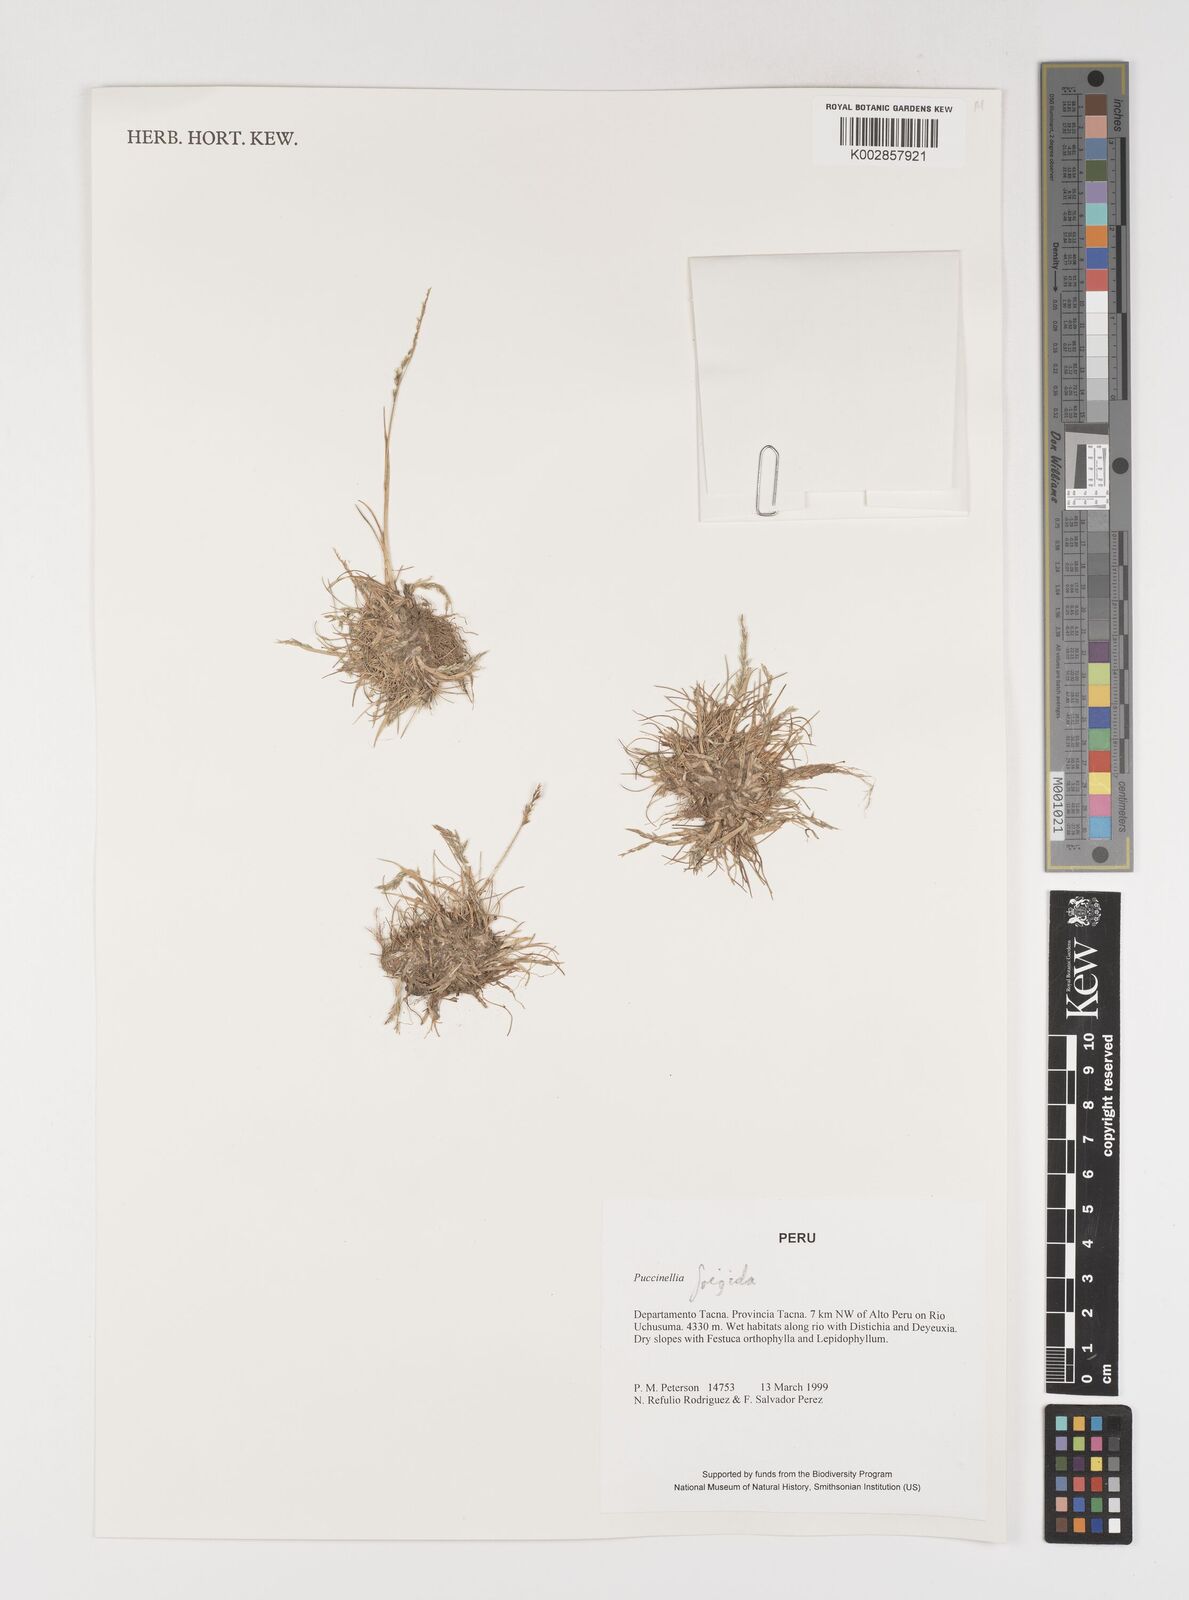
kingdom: Plantae
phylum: Tracheophyta
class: Liliopsida
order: Poales
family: Poaceae
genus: Puccinellia
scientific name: Puccinellia frigida
